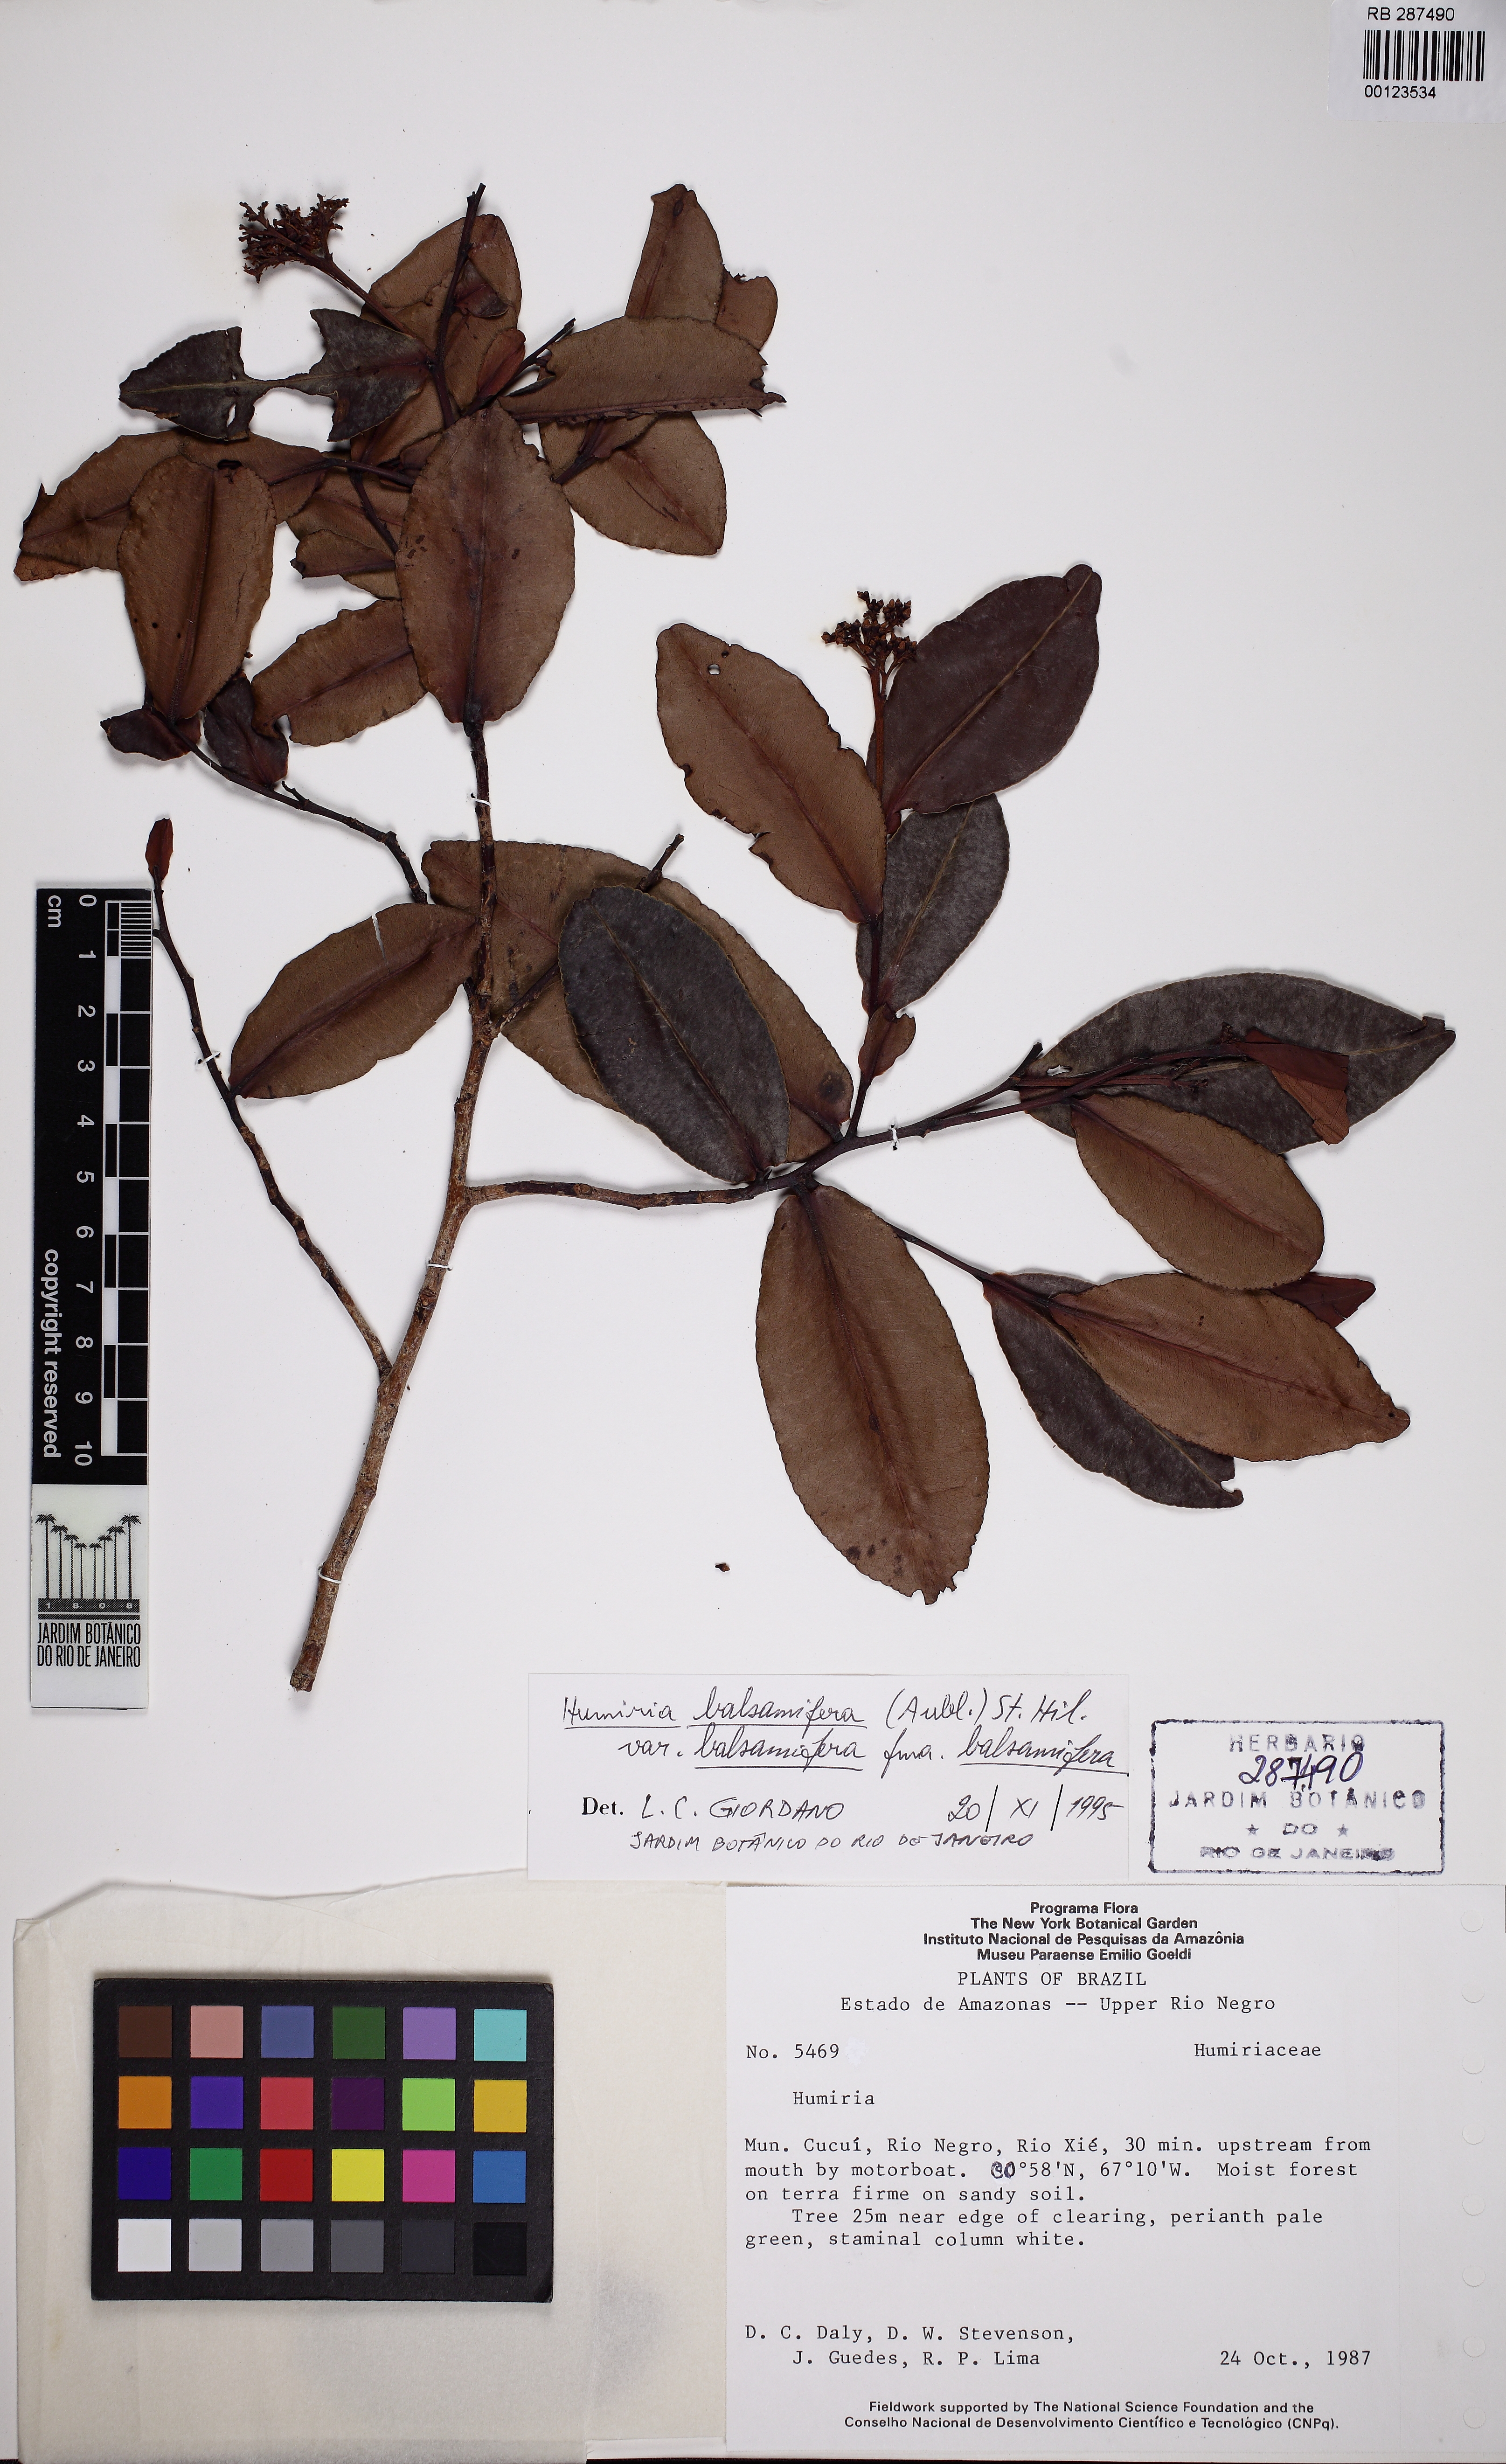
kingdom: Plantae
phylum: Tracheophyta
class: Magnoliopsida
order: Malpighiales
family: Humiriaceae
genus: Humiria
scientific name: Humiria balsamifera
